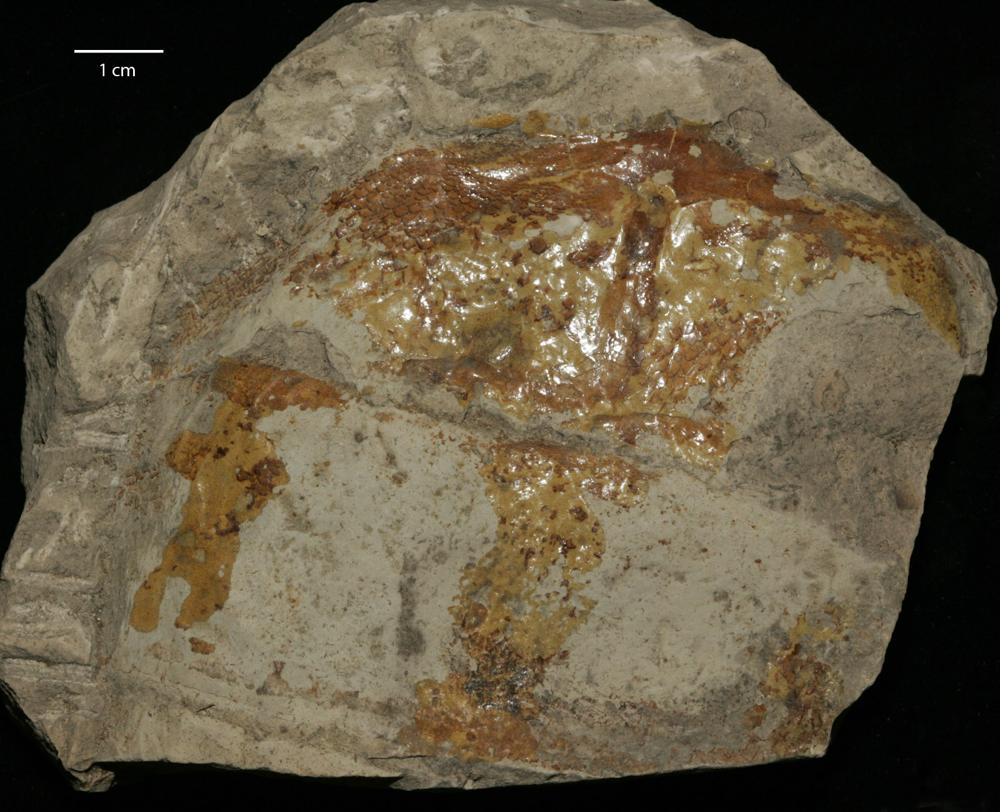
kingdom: Animalia
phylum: Chordata
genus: Pterygotus
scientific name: Pterygotus
